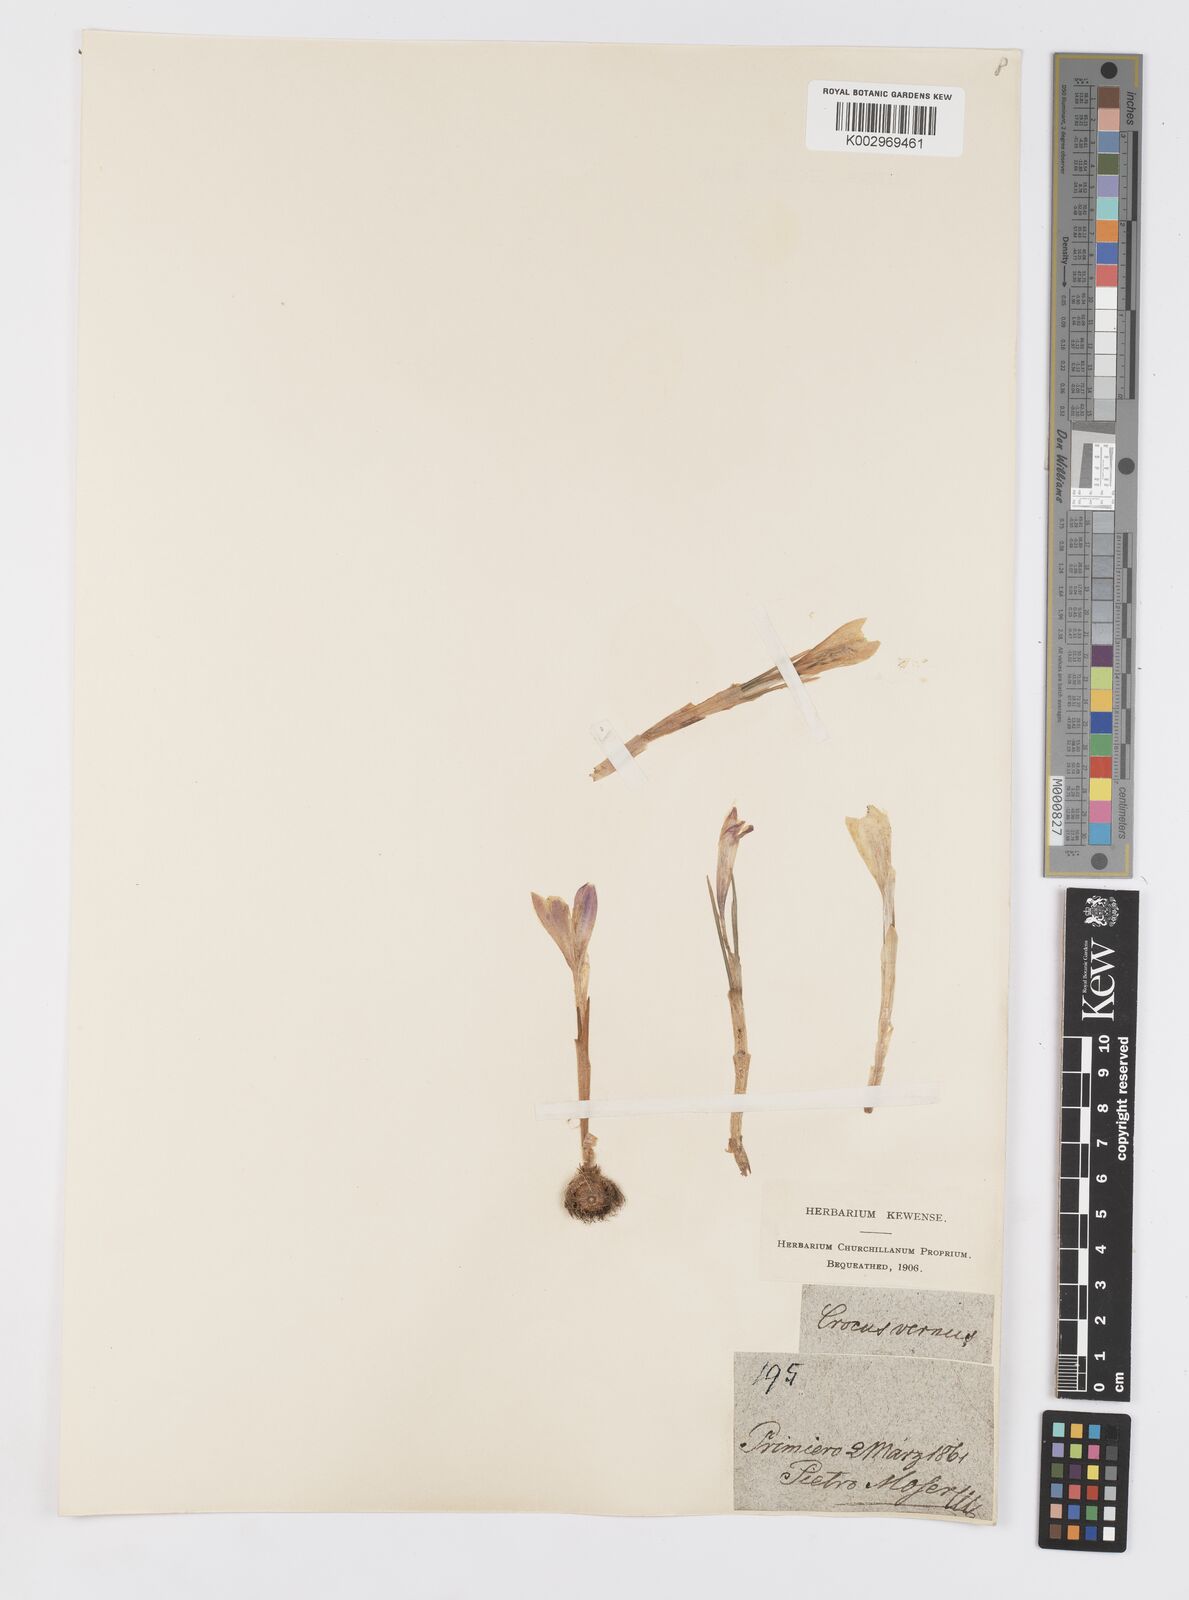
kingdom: Plantae
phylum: Tracheophyta
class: Liliopsida
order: Asparagales
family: Iridaceae
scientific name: Iridaceae
